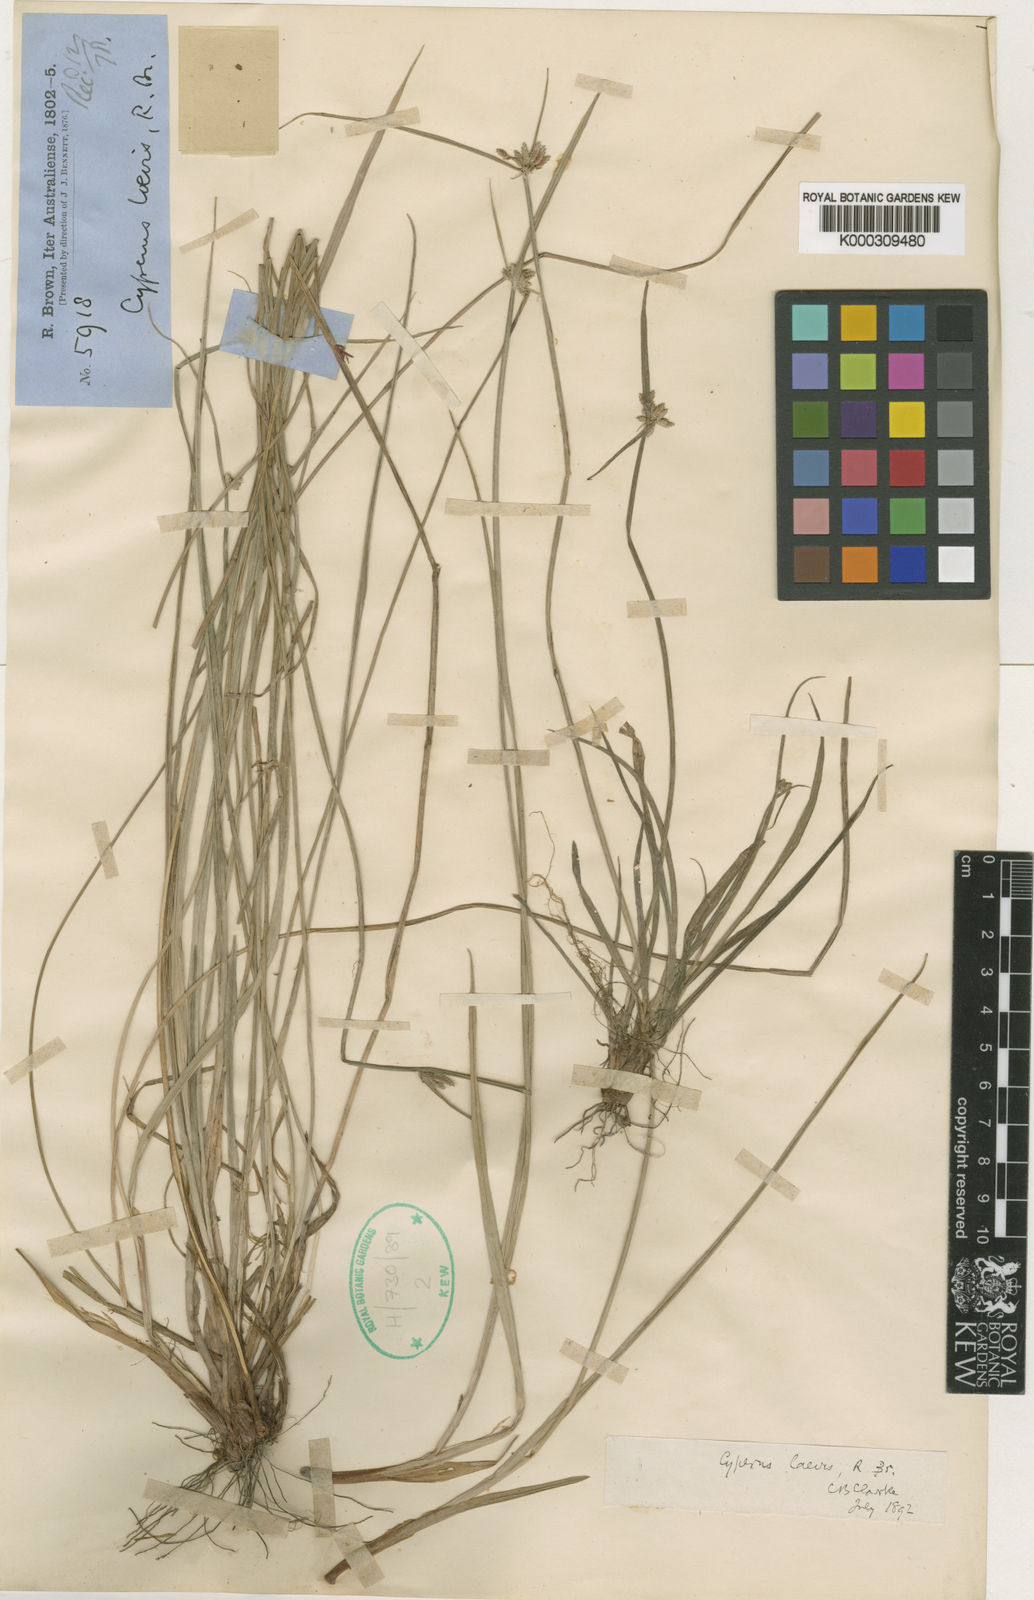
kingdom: Plantae
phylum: Tracheophyta
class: Liliopsida
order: Poales
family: Cyperaceae
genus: Cyperus
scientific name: Cyperus laevis
